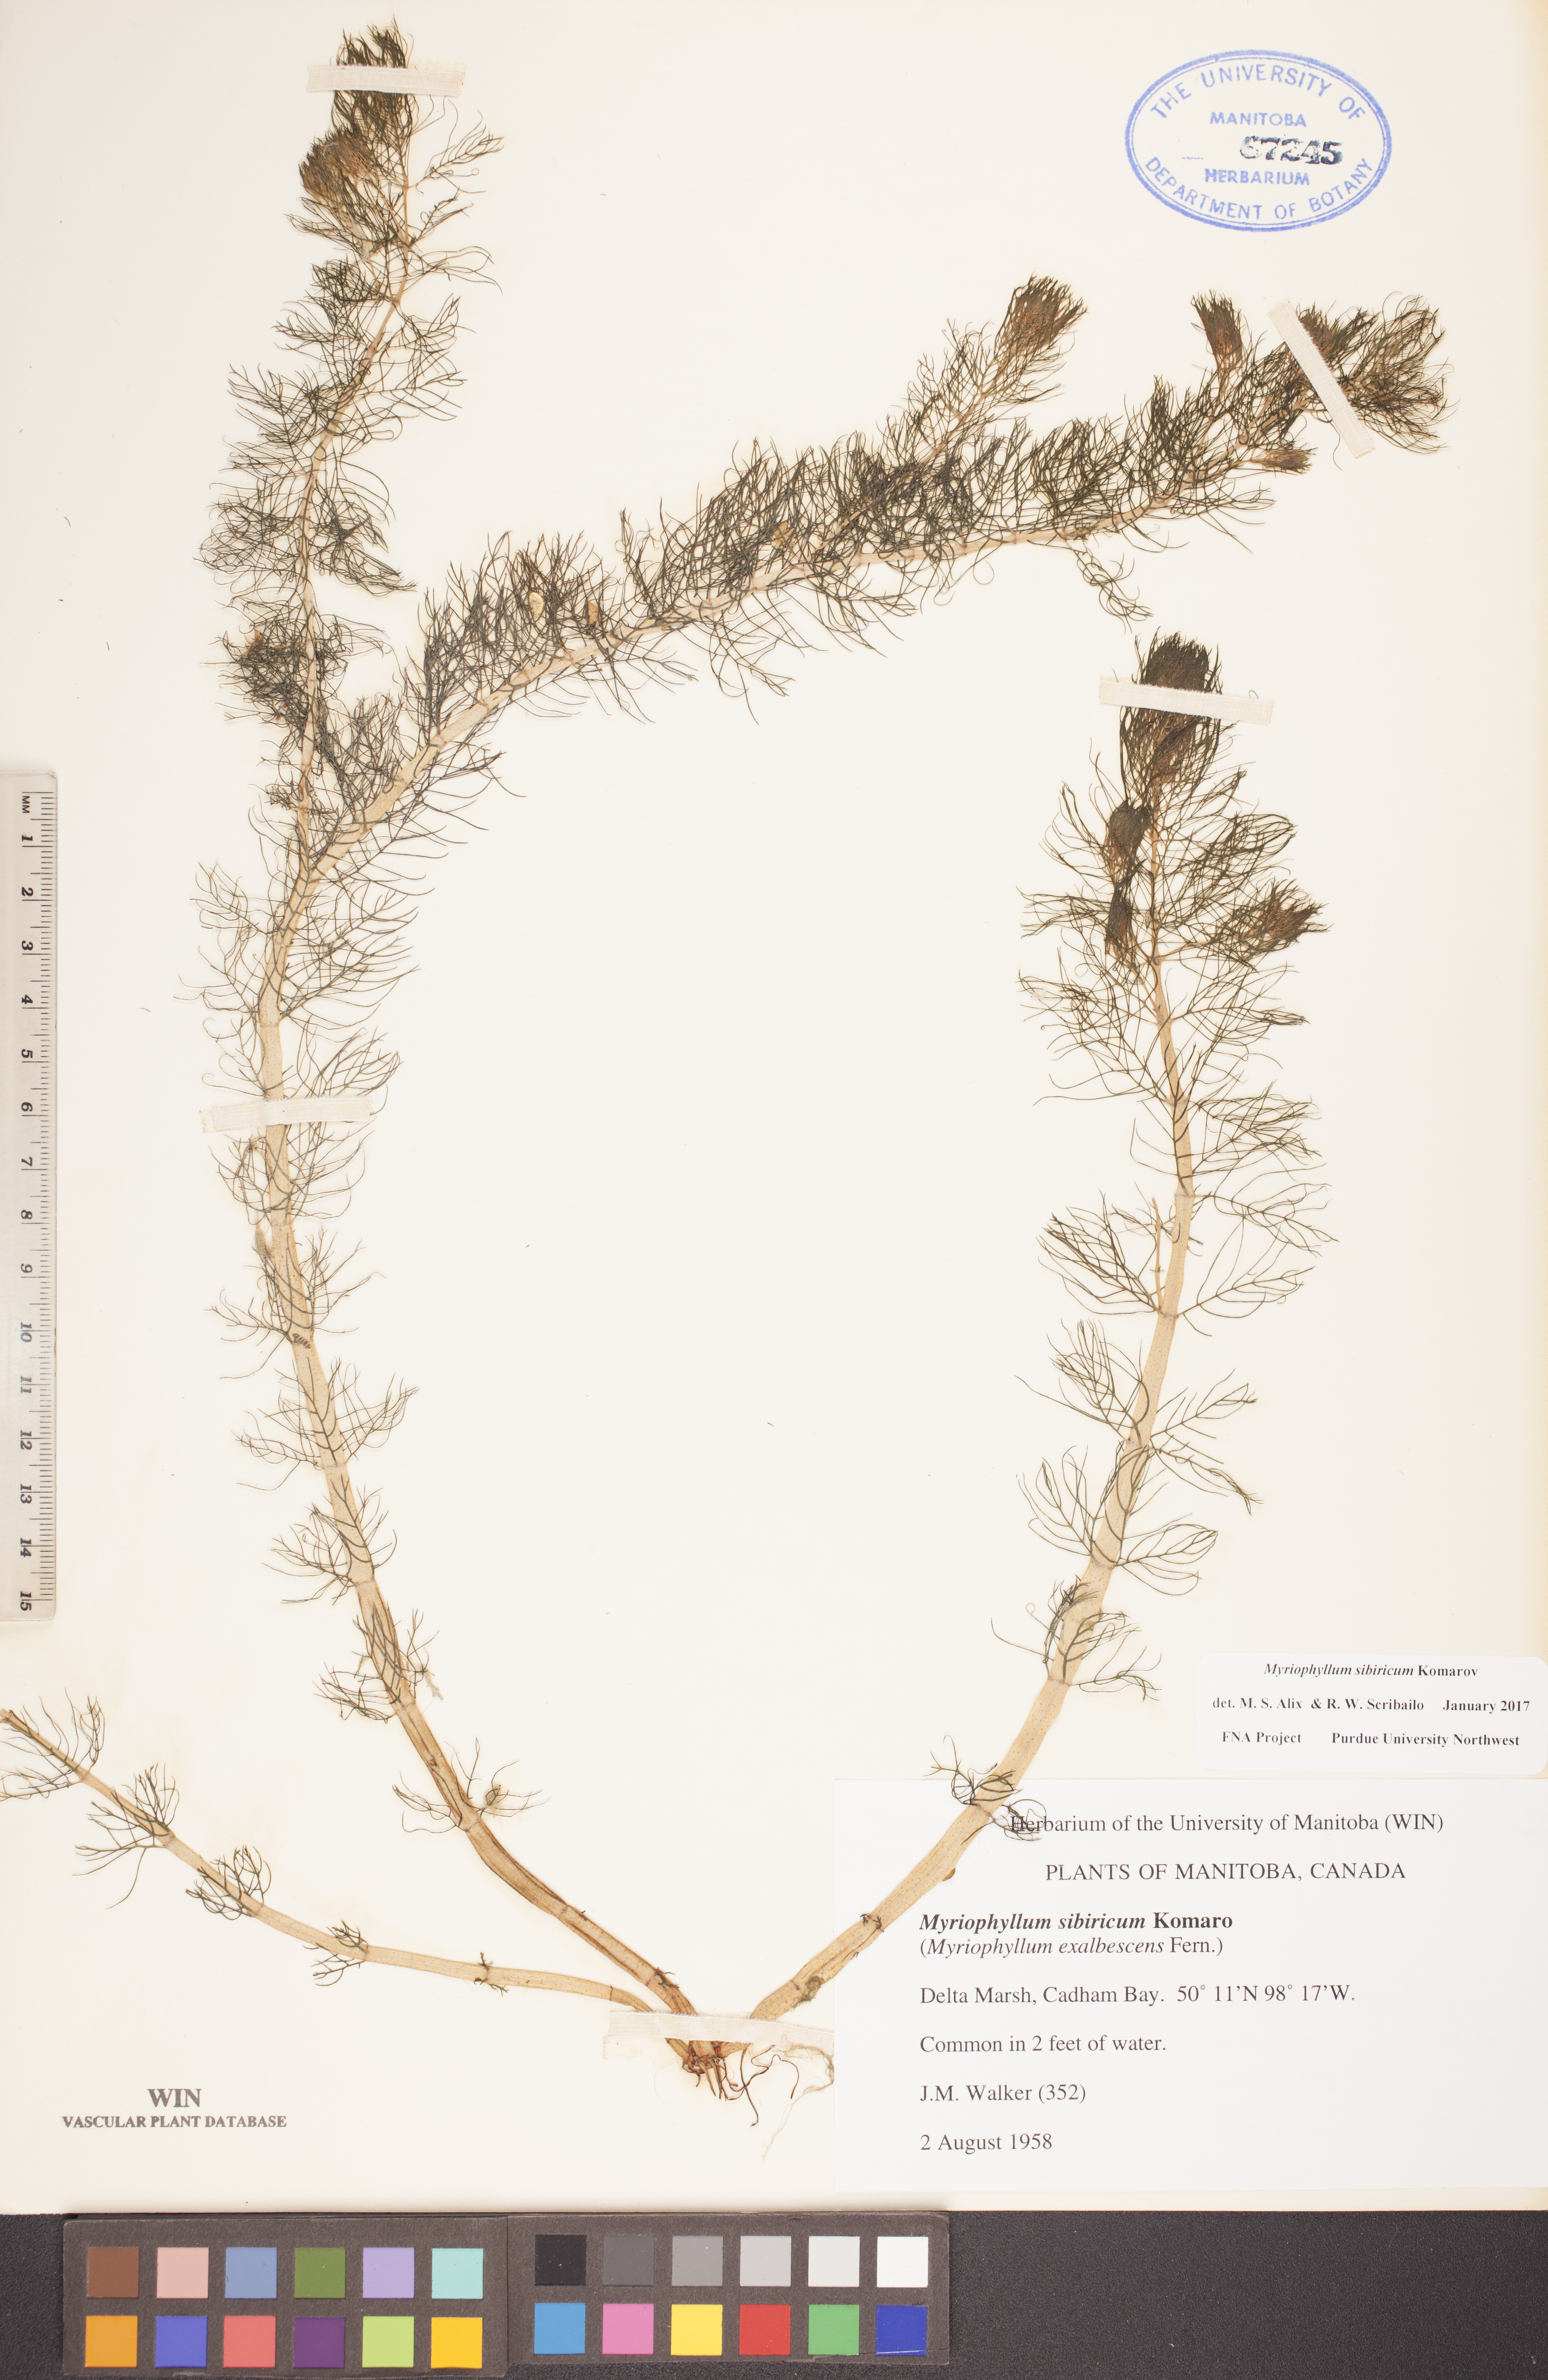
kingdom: Plantae
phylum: Tracheophyta
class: Magnoliopsida
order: Saxifragales
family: Haloragaceae
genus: Myriophyllum
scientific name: Myriophyllum sibiricum
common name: Siberian water-milfoil
